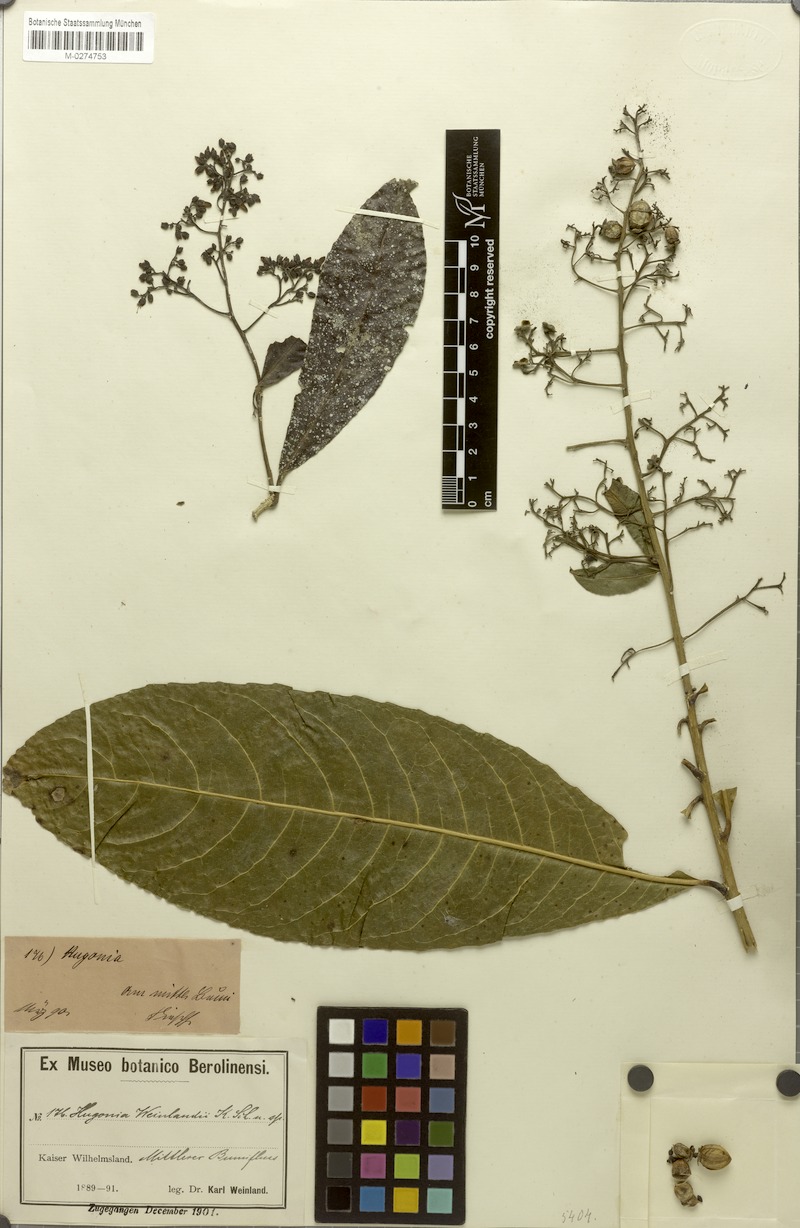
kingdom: Plantae
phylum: Tracheophyta
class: Magnoliopsida
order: Malpighiales
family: Linaceae
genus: Durandea
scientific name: Durandea jenkinsii
